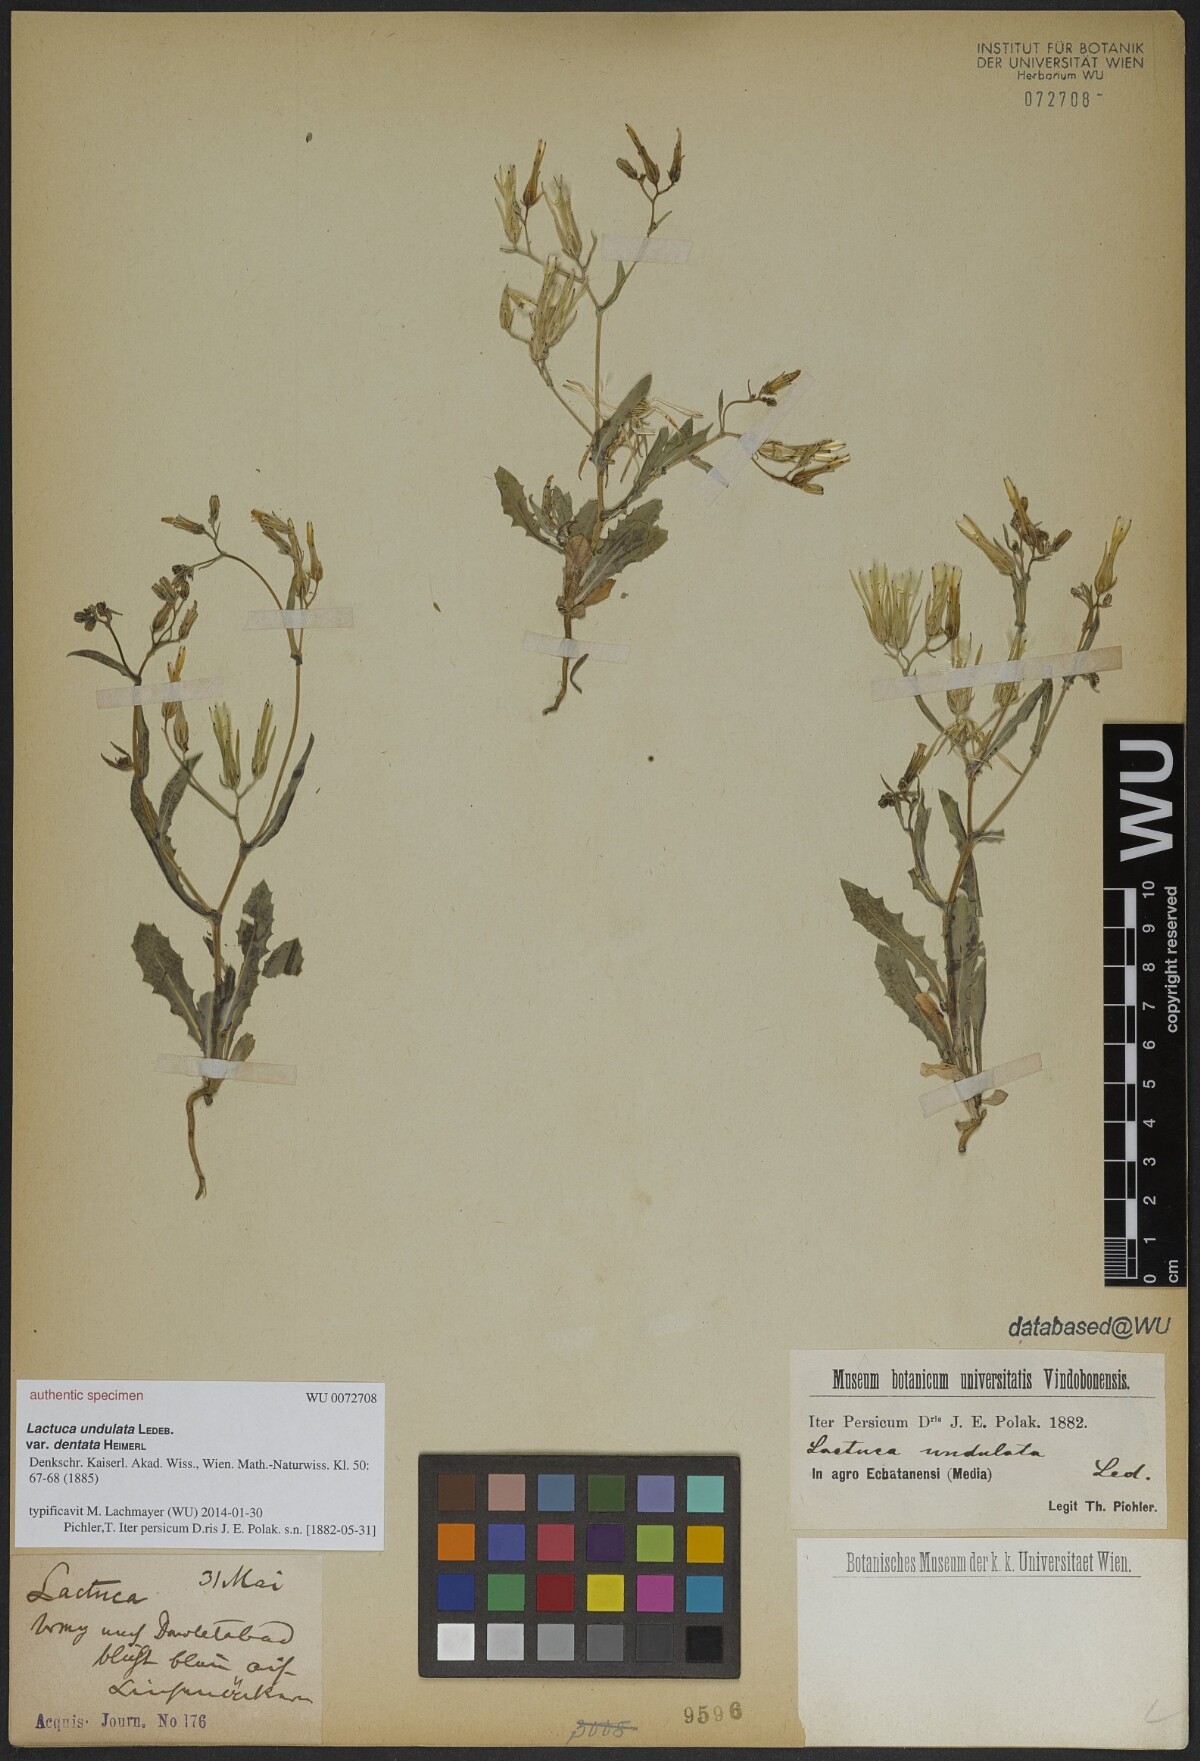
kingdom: Plantae
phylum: Tracheophyta
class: Magnoliopsida
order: Asterales
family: Asteraceae
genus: Lactuca
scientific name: Lactuca undulata
